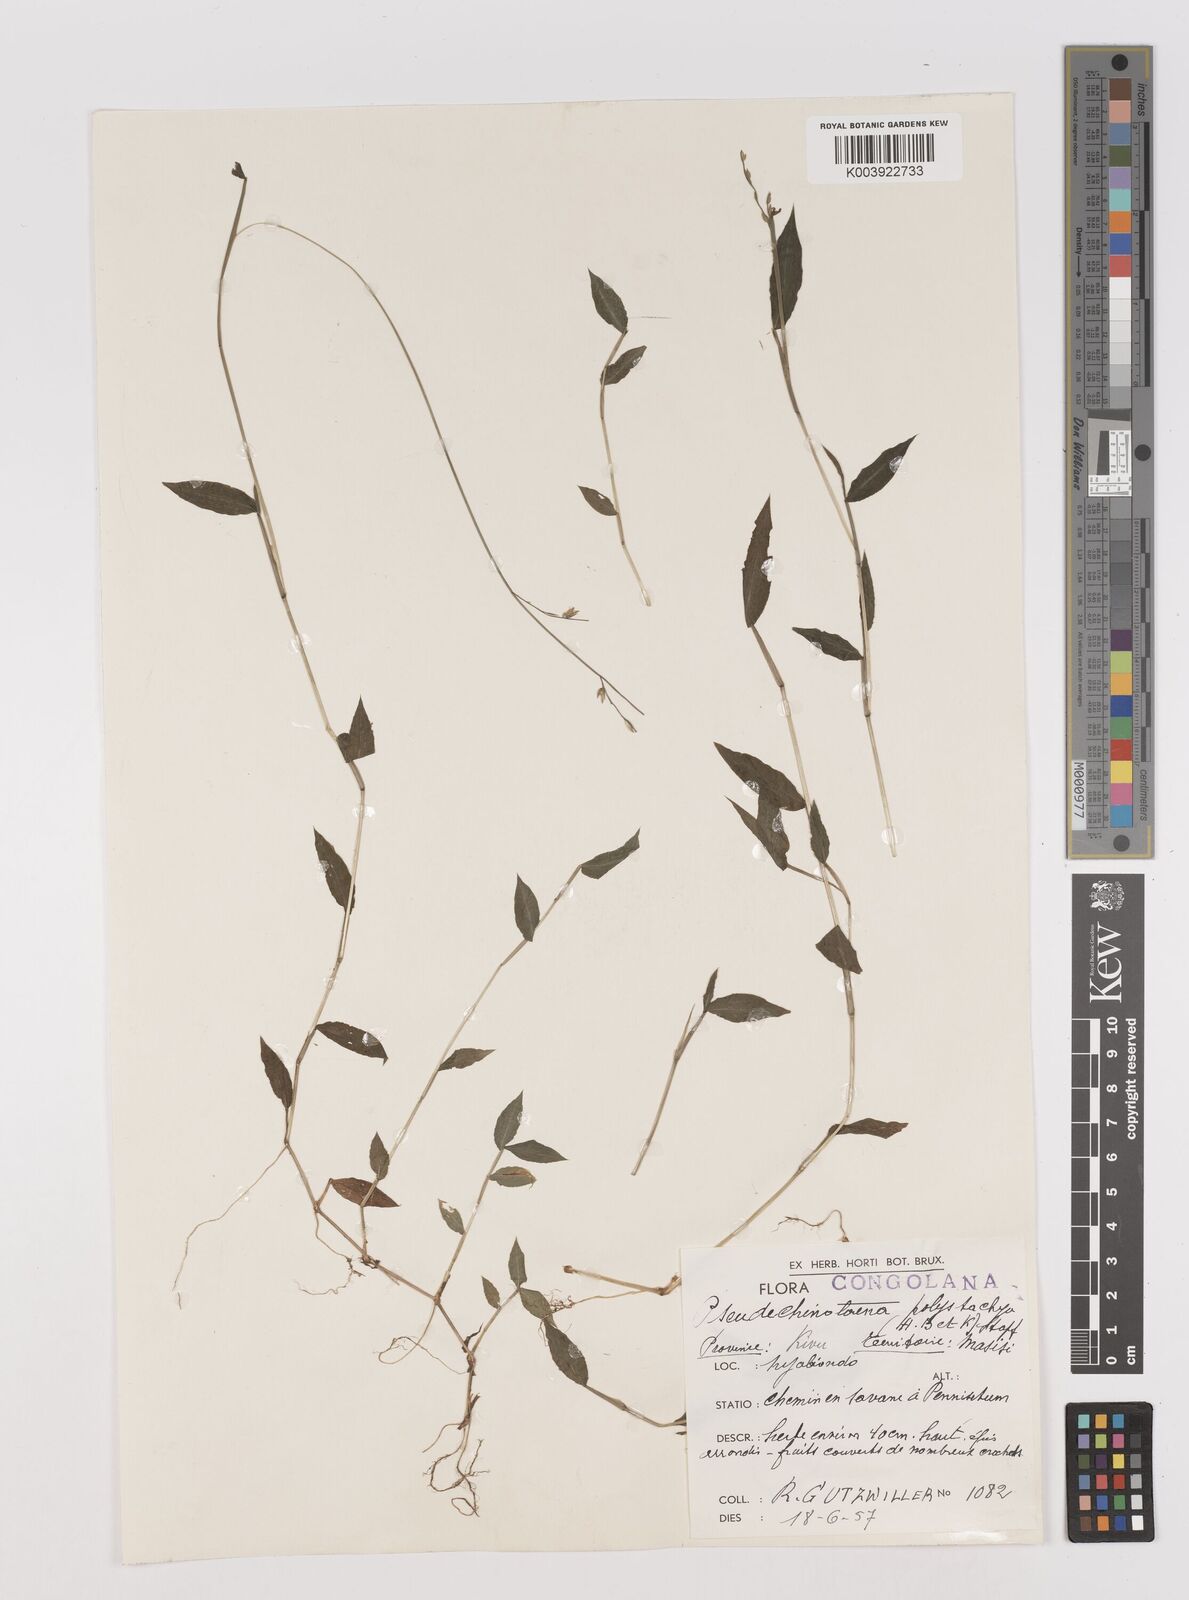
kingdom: Plantae
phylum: Tracheophyta
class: Liliopsida
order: Poales
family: Poaceae
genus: Pseudechinolaena
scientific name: Pseudechinolaena polystachya
